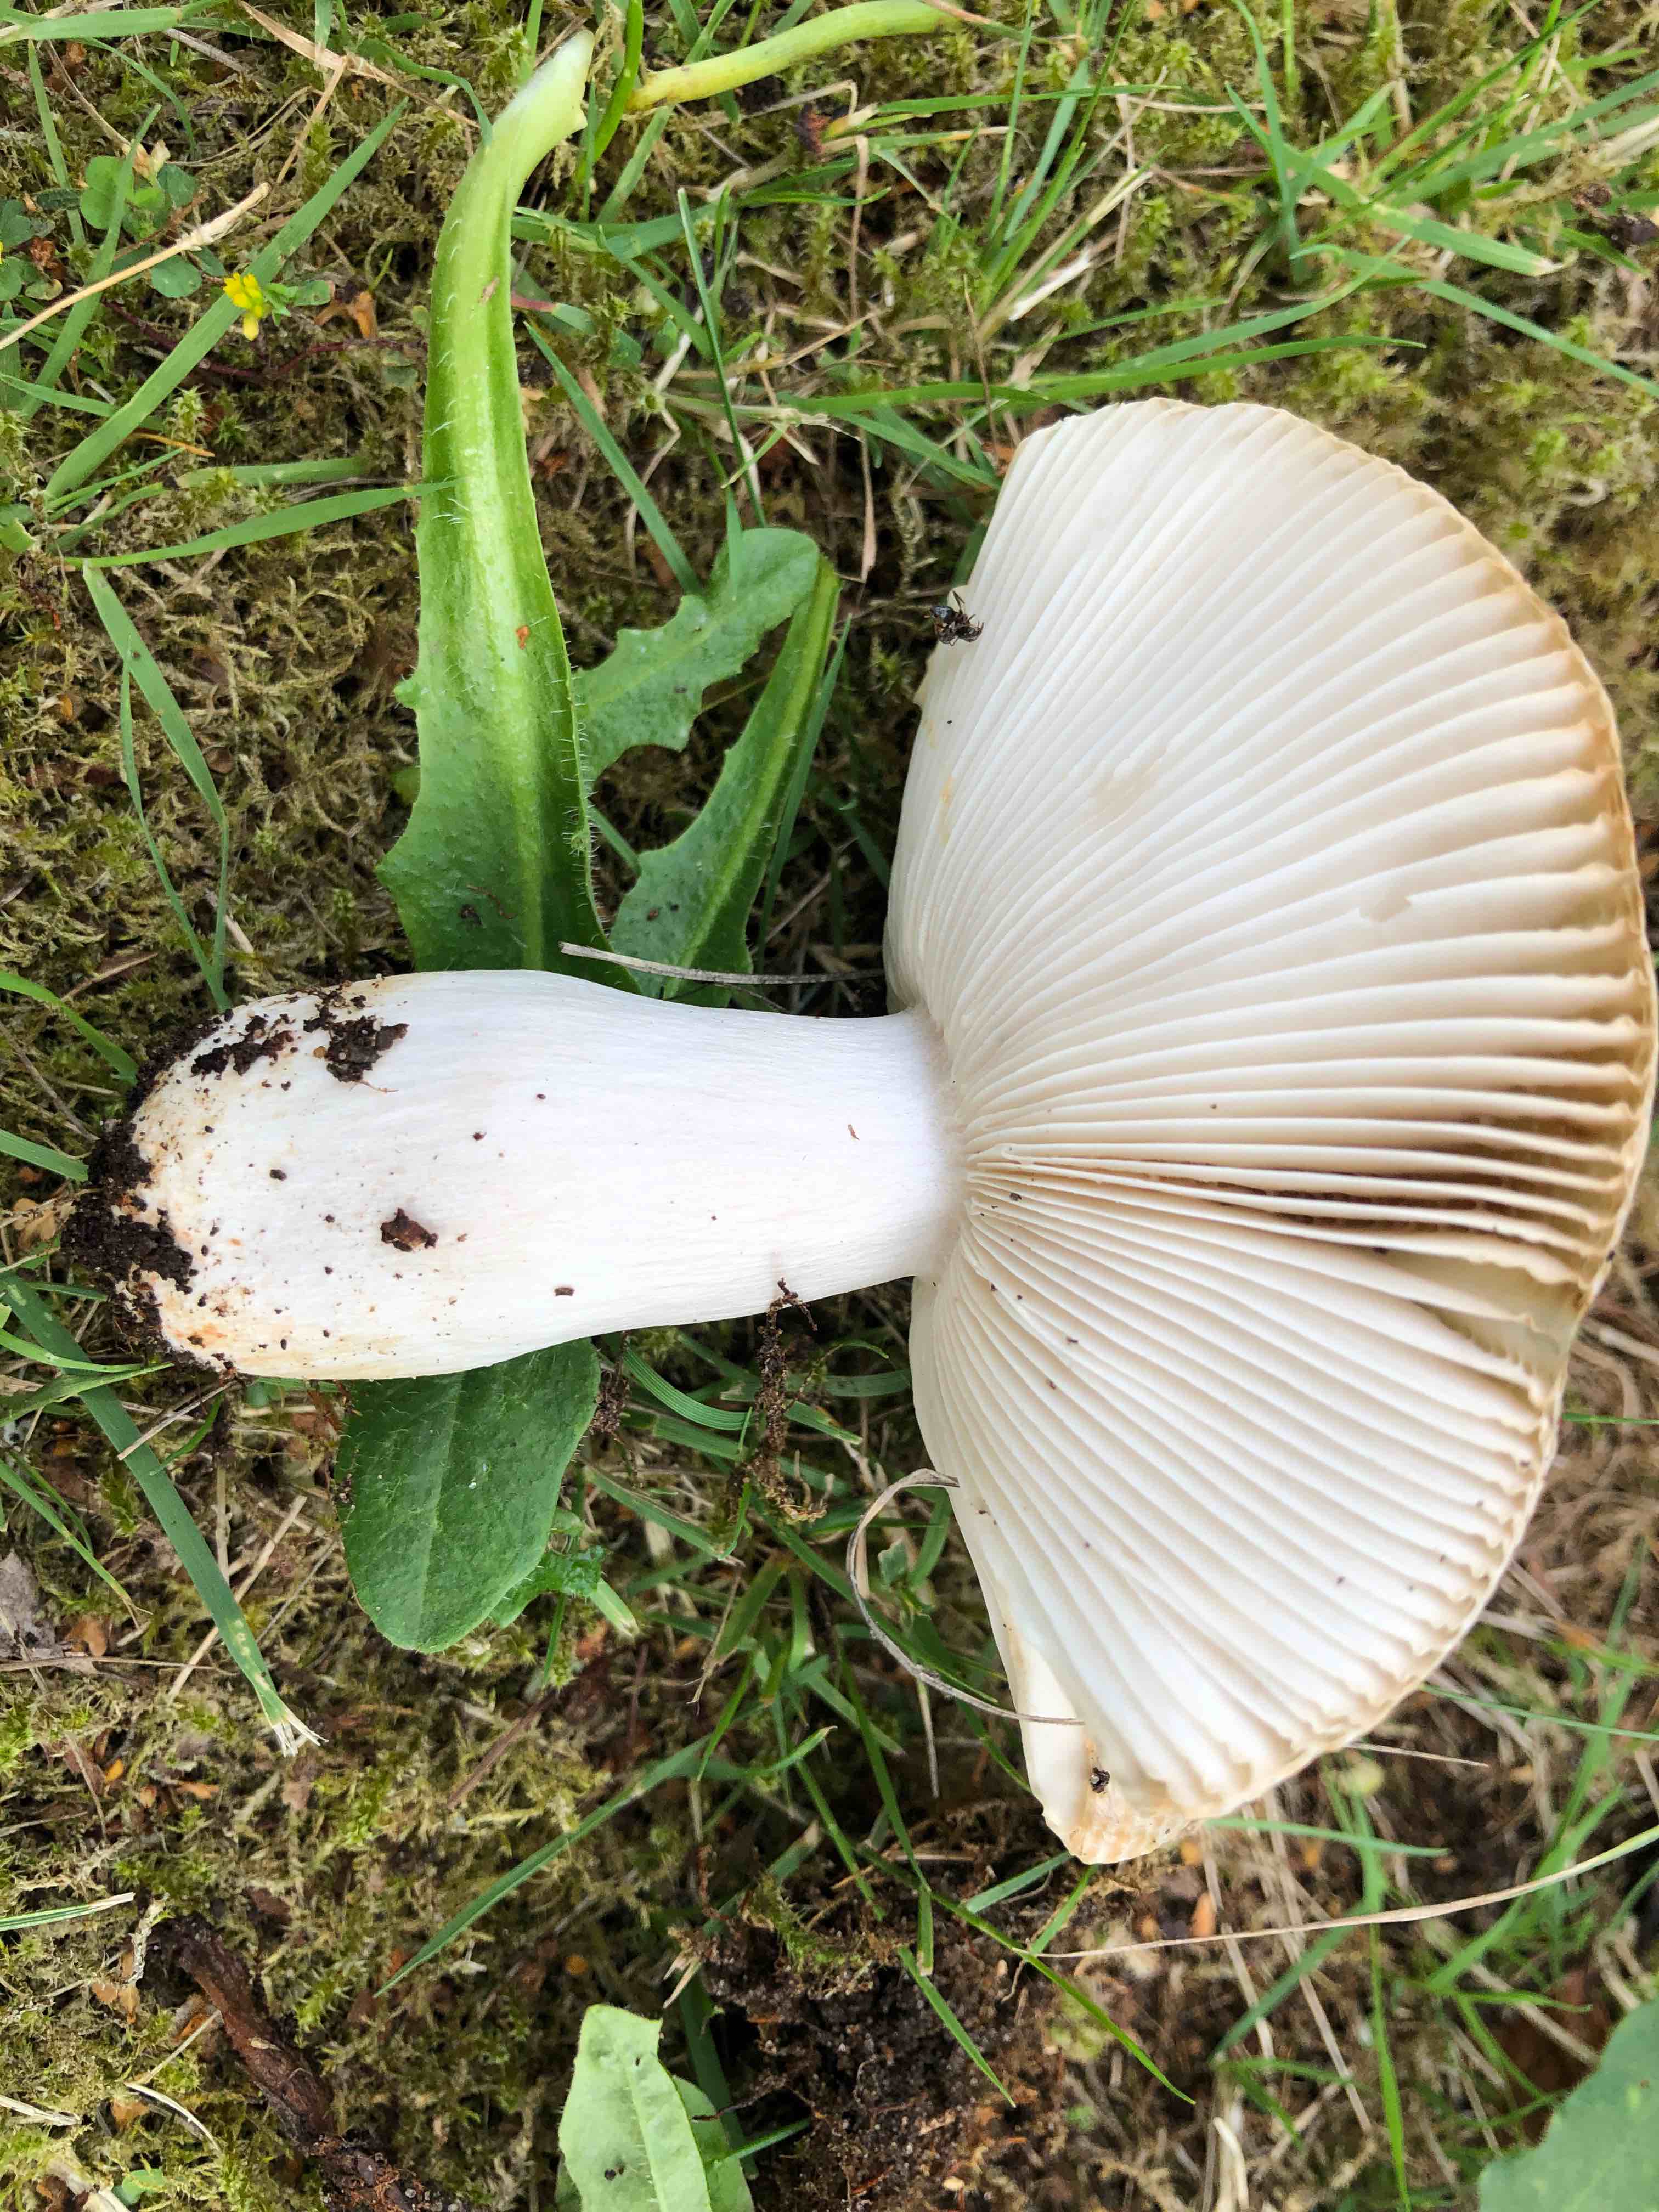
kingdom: Fungi
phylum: Basidiomycota
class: Agaricomycetes
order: Russulales
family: Russulaceae
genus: Russula
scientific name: Russula recondita
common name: mild kam-skørhat
